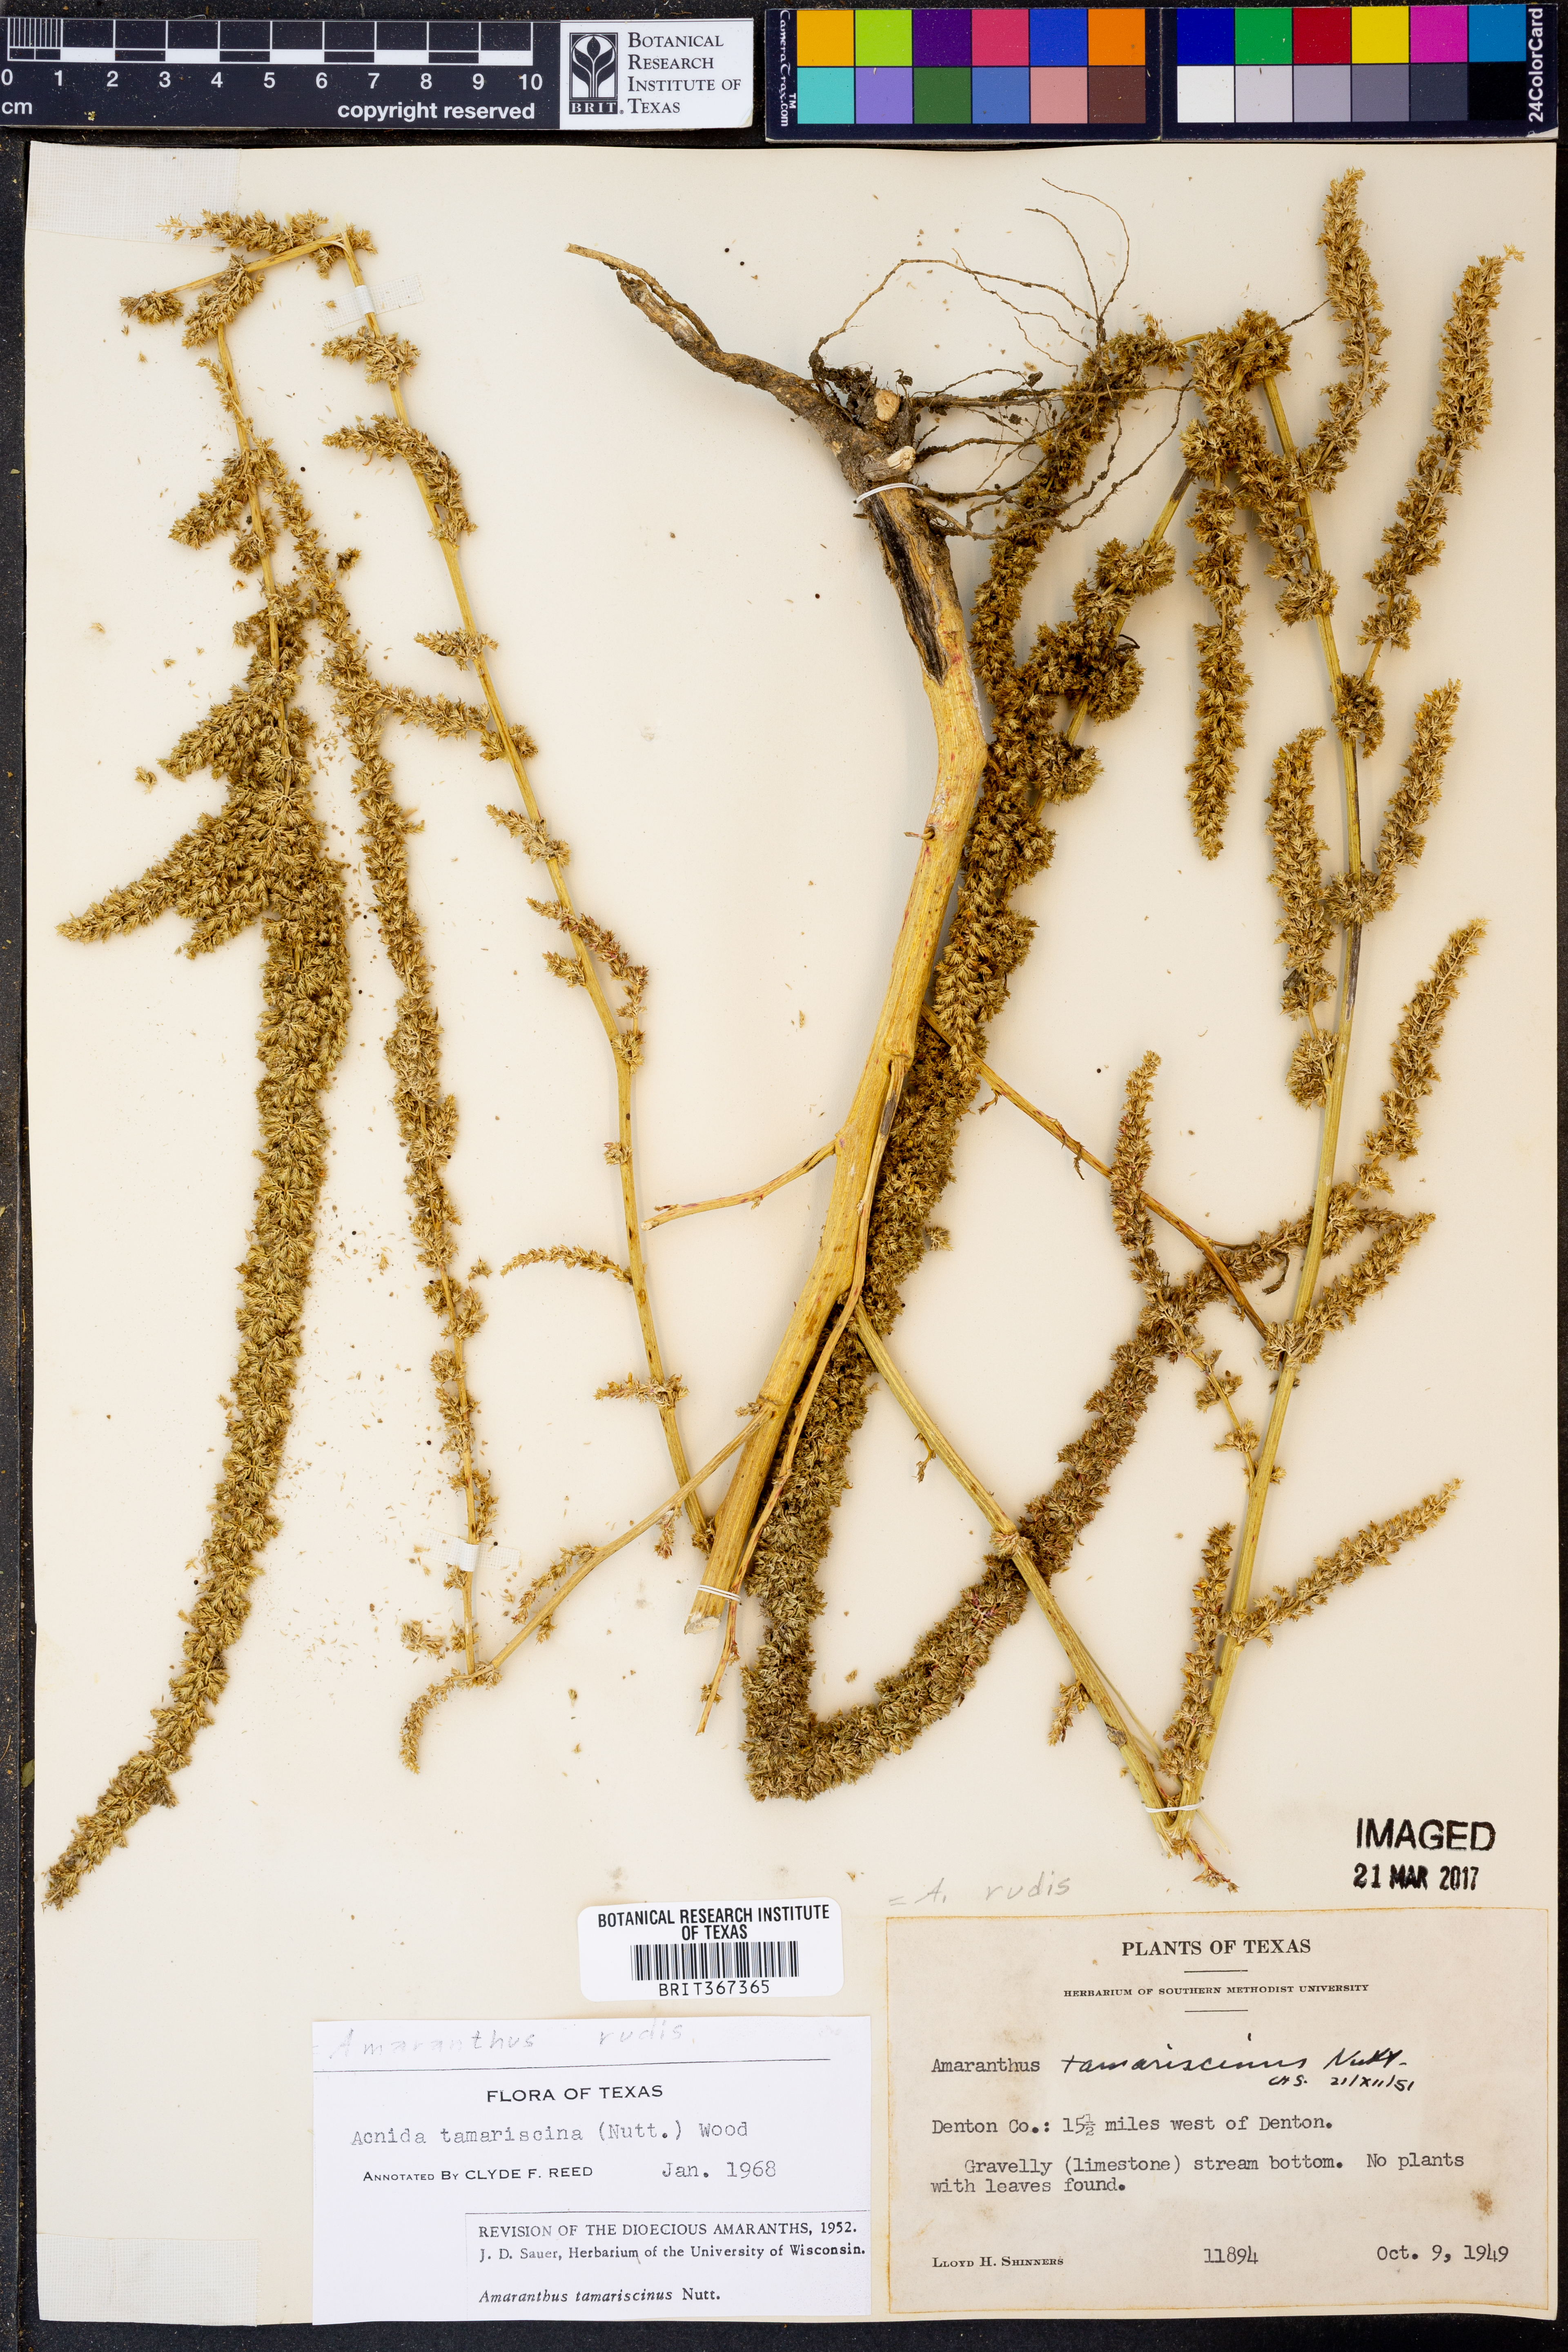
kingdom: Plantae
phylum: Tracheophyta
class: Magnoliopsida
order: Caryophyllales
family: Amaranthaceae
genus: Amaranthus
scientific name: Amaranthus tuberculatus
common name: Rough-fruit amaranth
